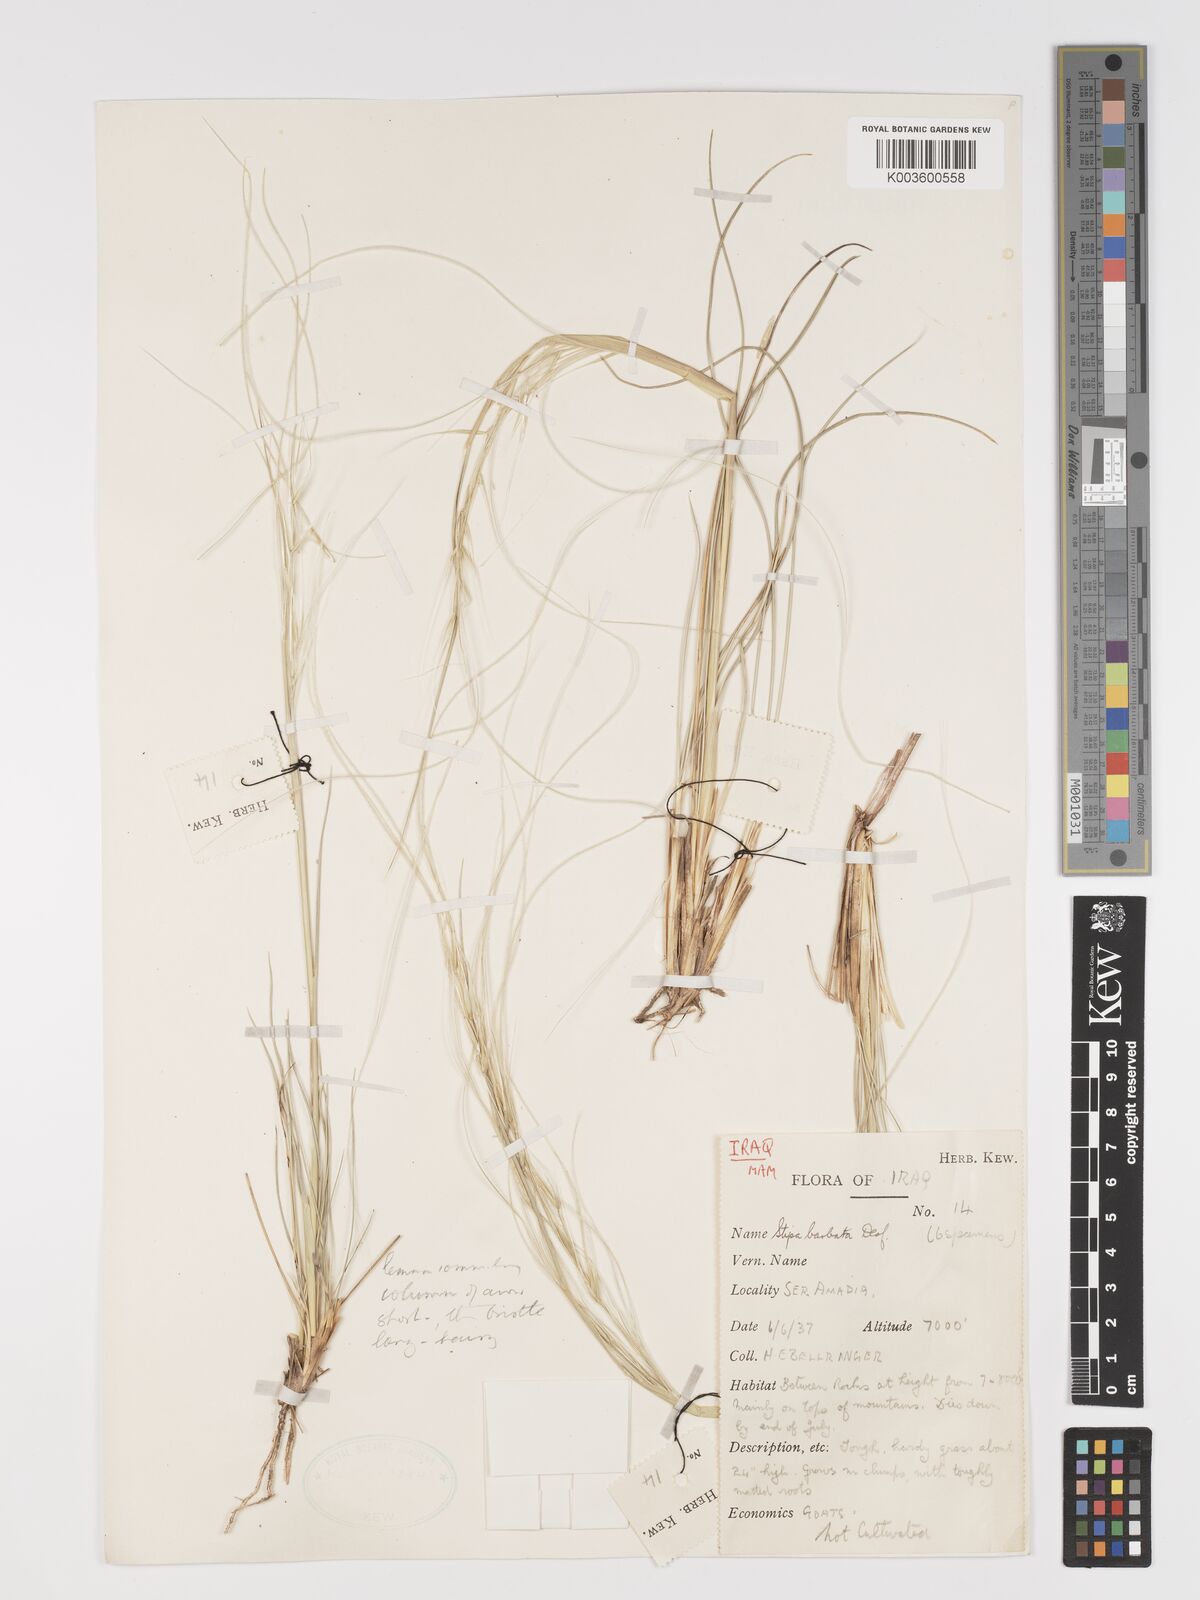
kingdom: Plantae
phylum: Tracheophyta
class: Liliopsida
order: Poales
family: Poaceae
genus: Stipa
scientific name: Stipa barbata
